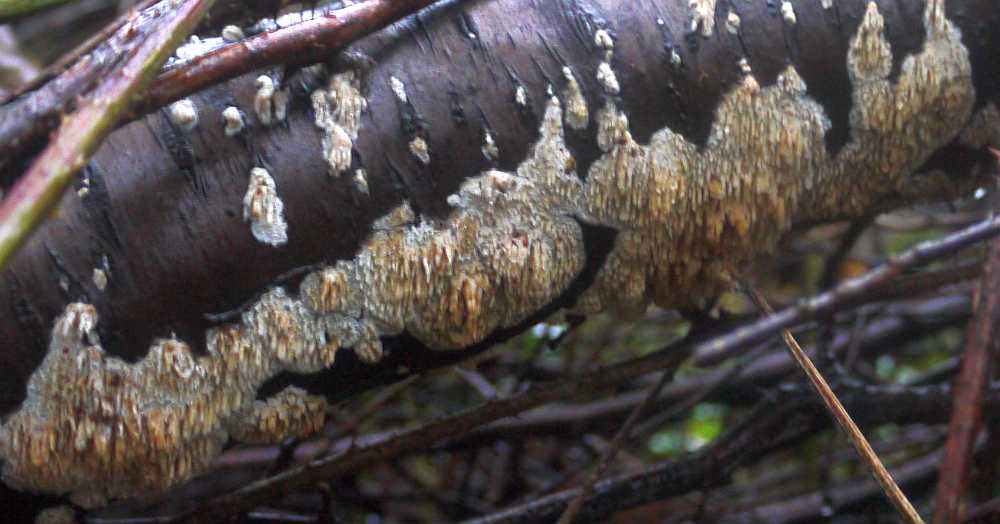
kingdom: Fungi
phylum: Basidiomycota
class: Agaricomycetes
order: Hymenochaetales
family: Schizoporaceae
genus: Xylodon
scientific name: Xylodon radula
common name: grovtandet kalkskind
